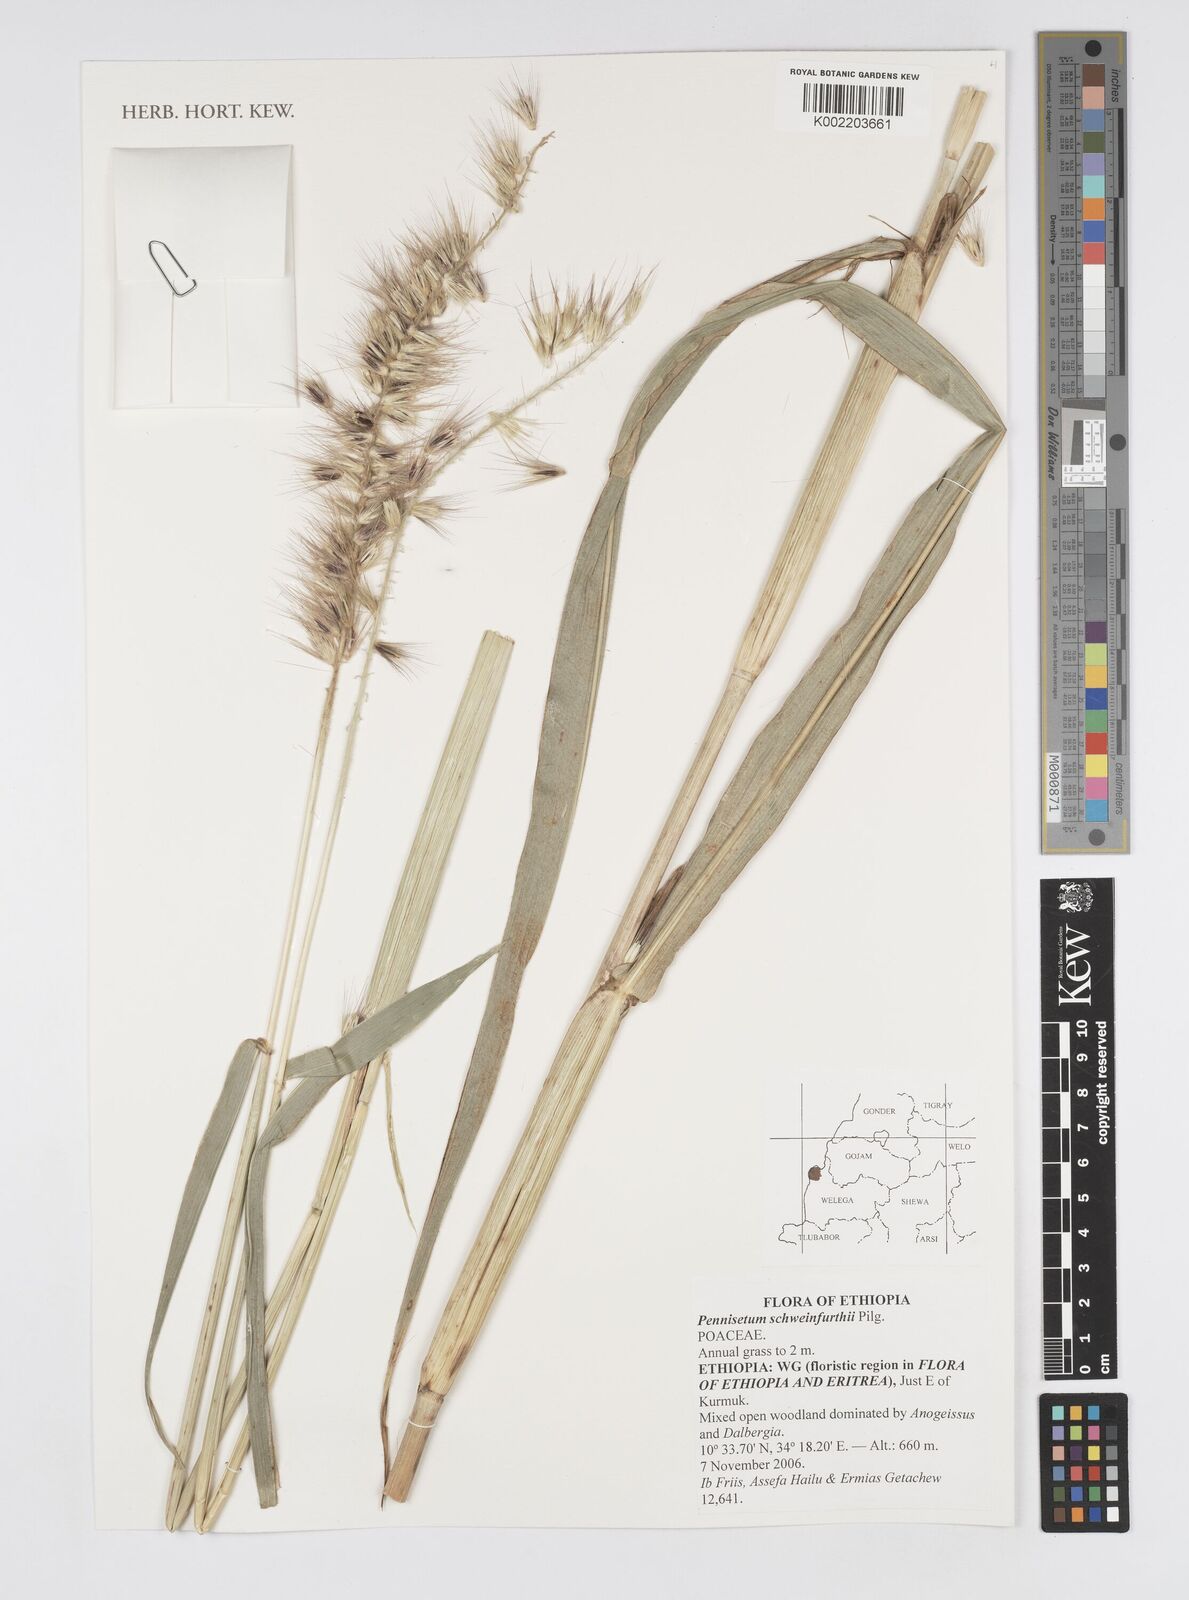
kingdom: Plantae
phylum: Tracheophyta
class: Liliopsida
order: Poales
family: Poaceae
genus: Cenchrus
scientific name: Cenchrus schweinfurthii
